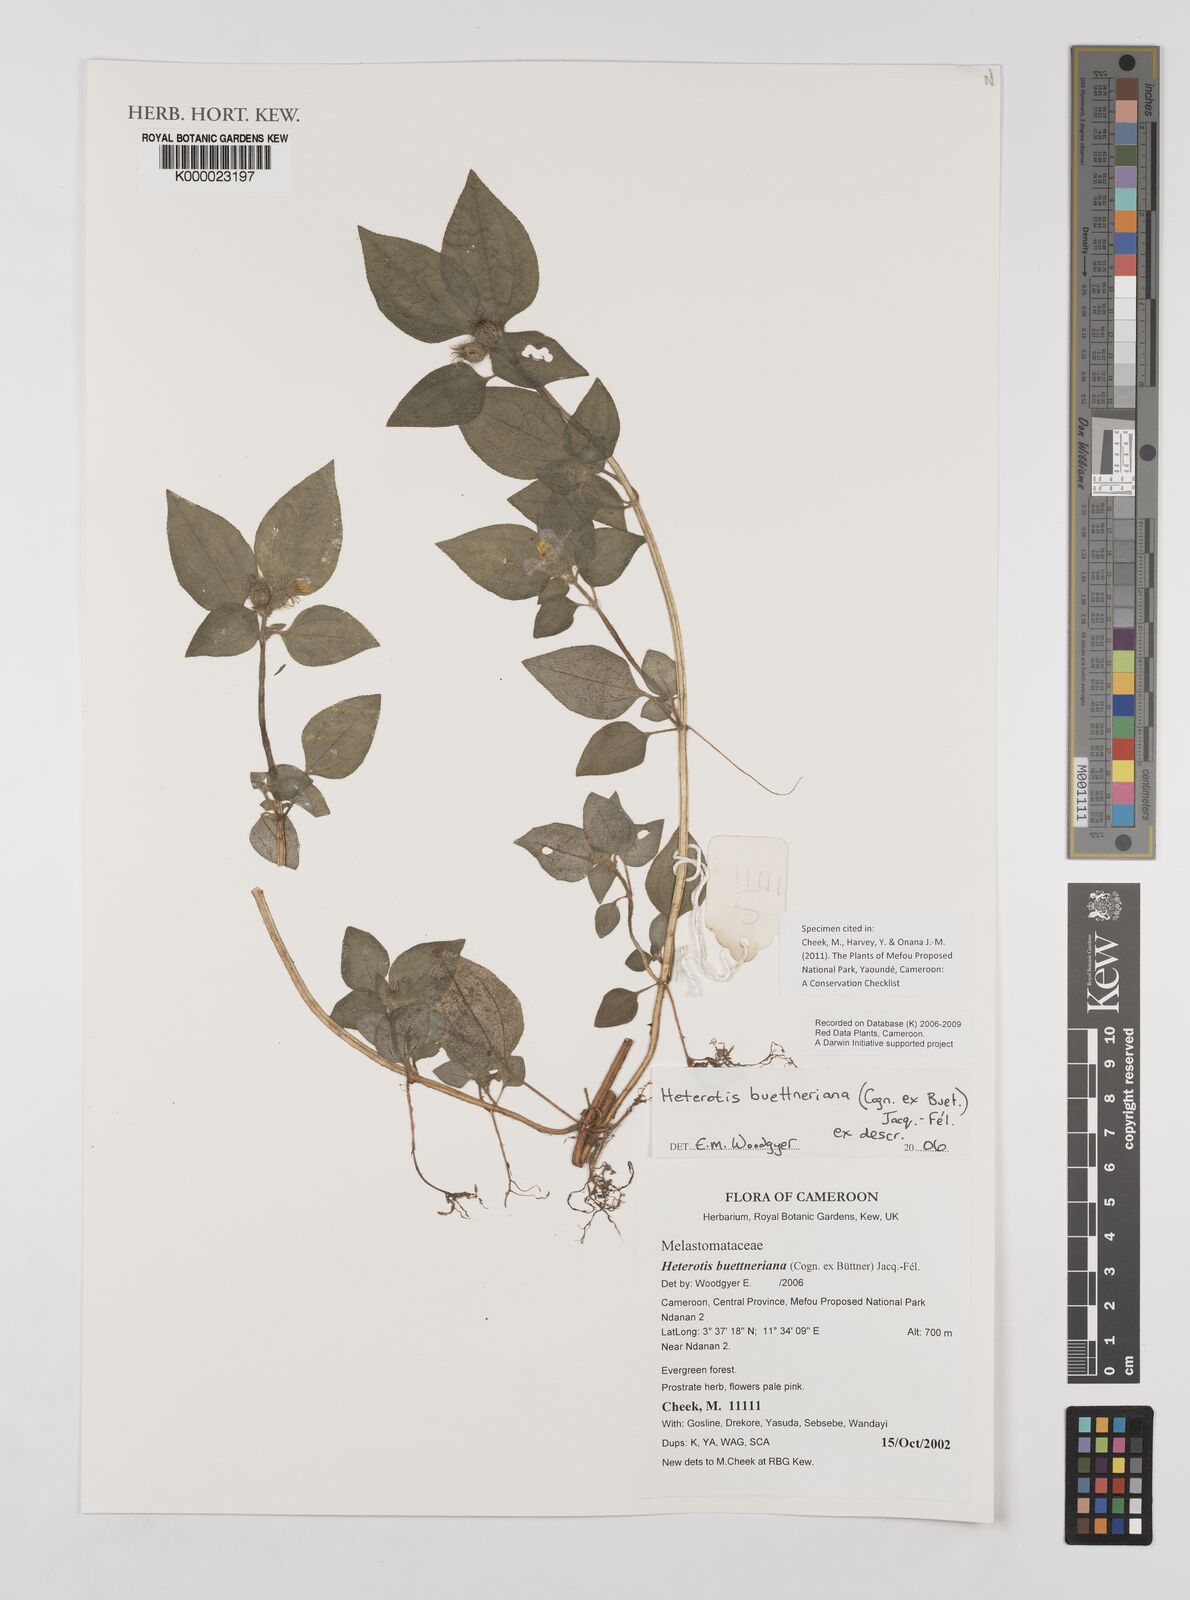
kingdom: Plantae
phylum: Tracheophyta
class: Magnoliopsida
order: Myrtales
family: Melastomataceae
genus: Heterotis
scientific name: Heterotis
